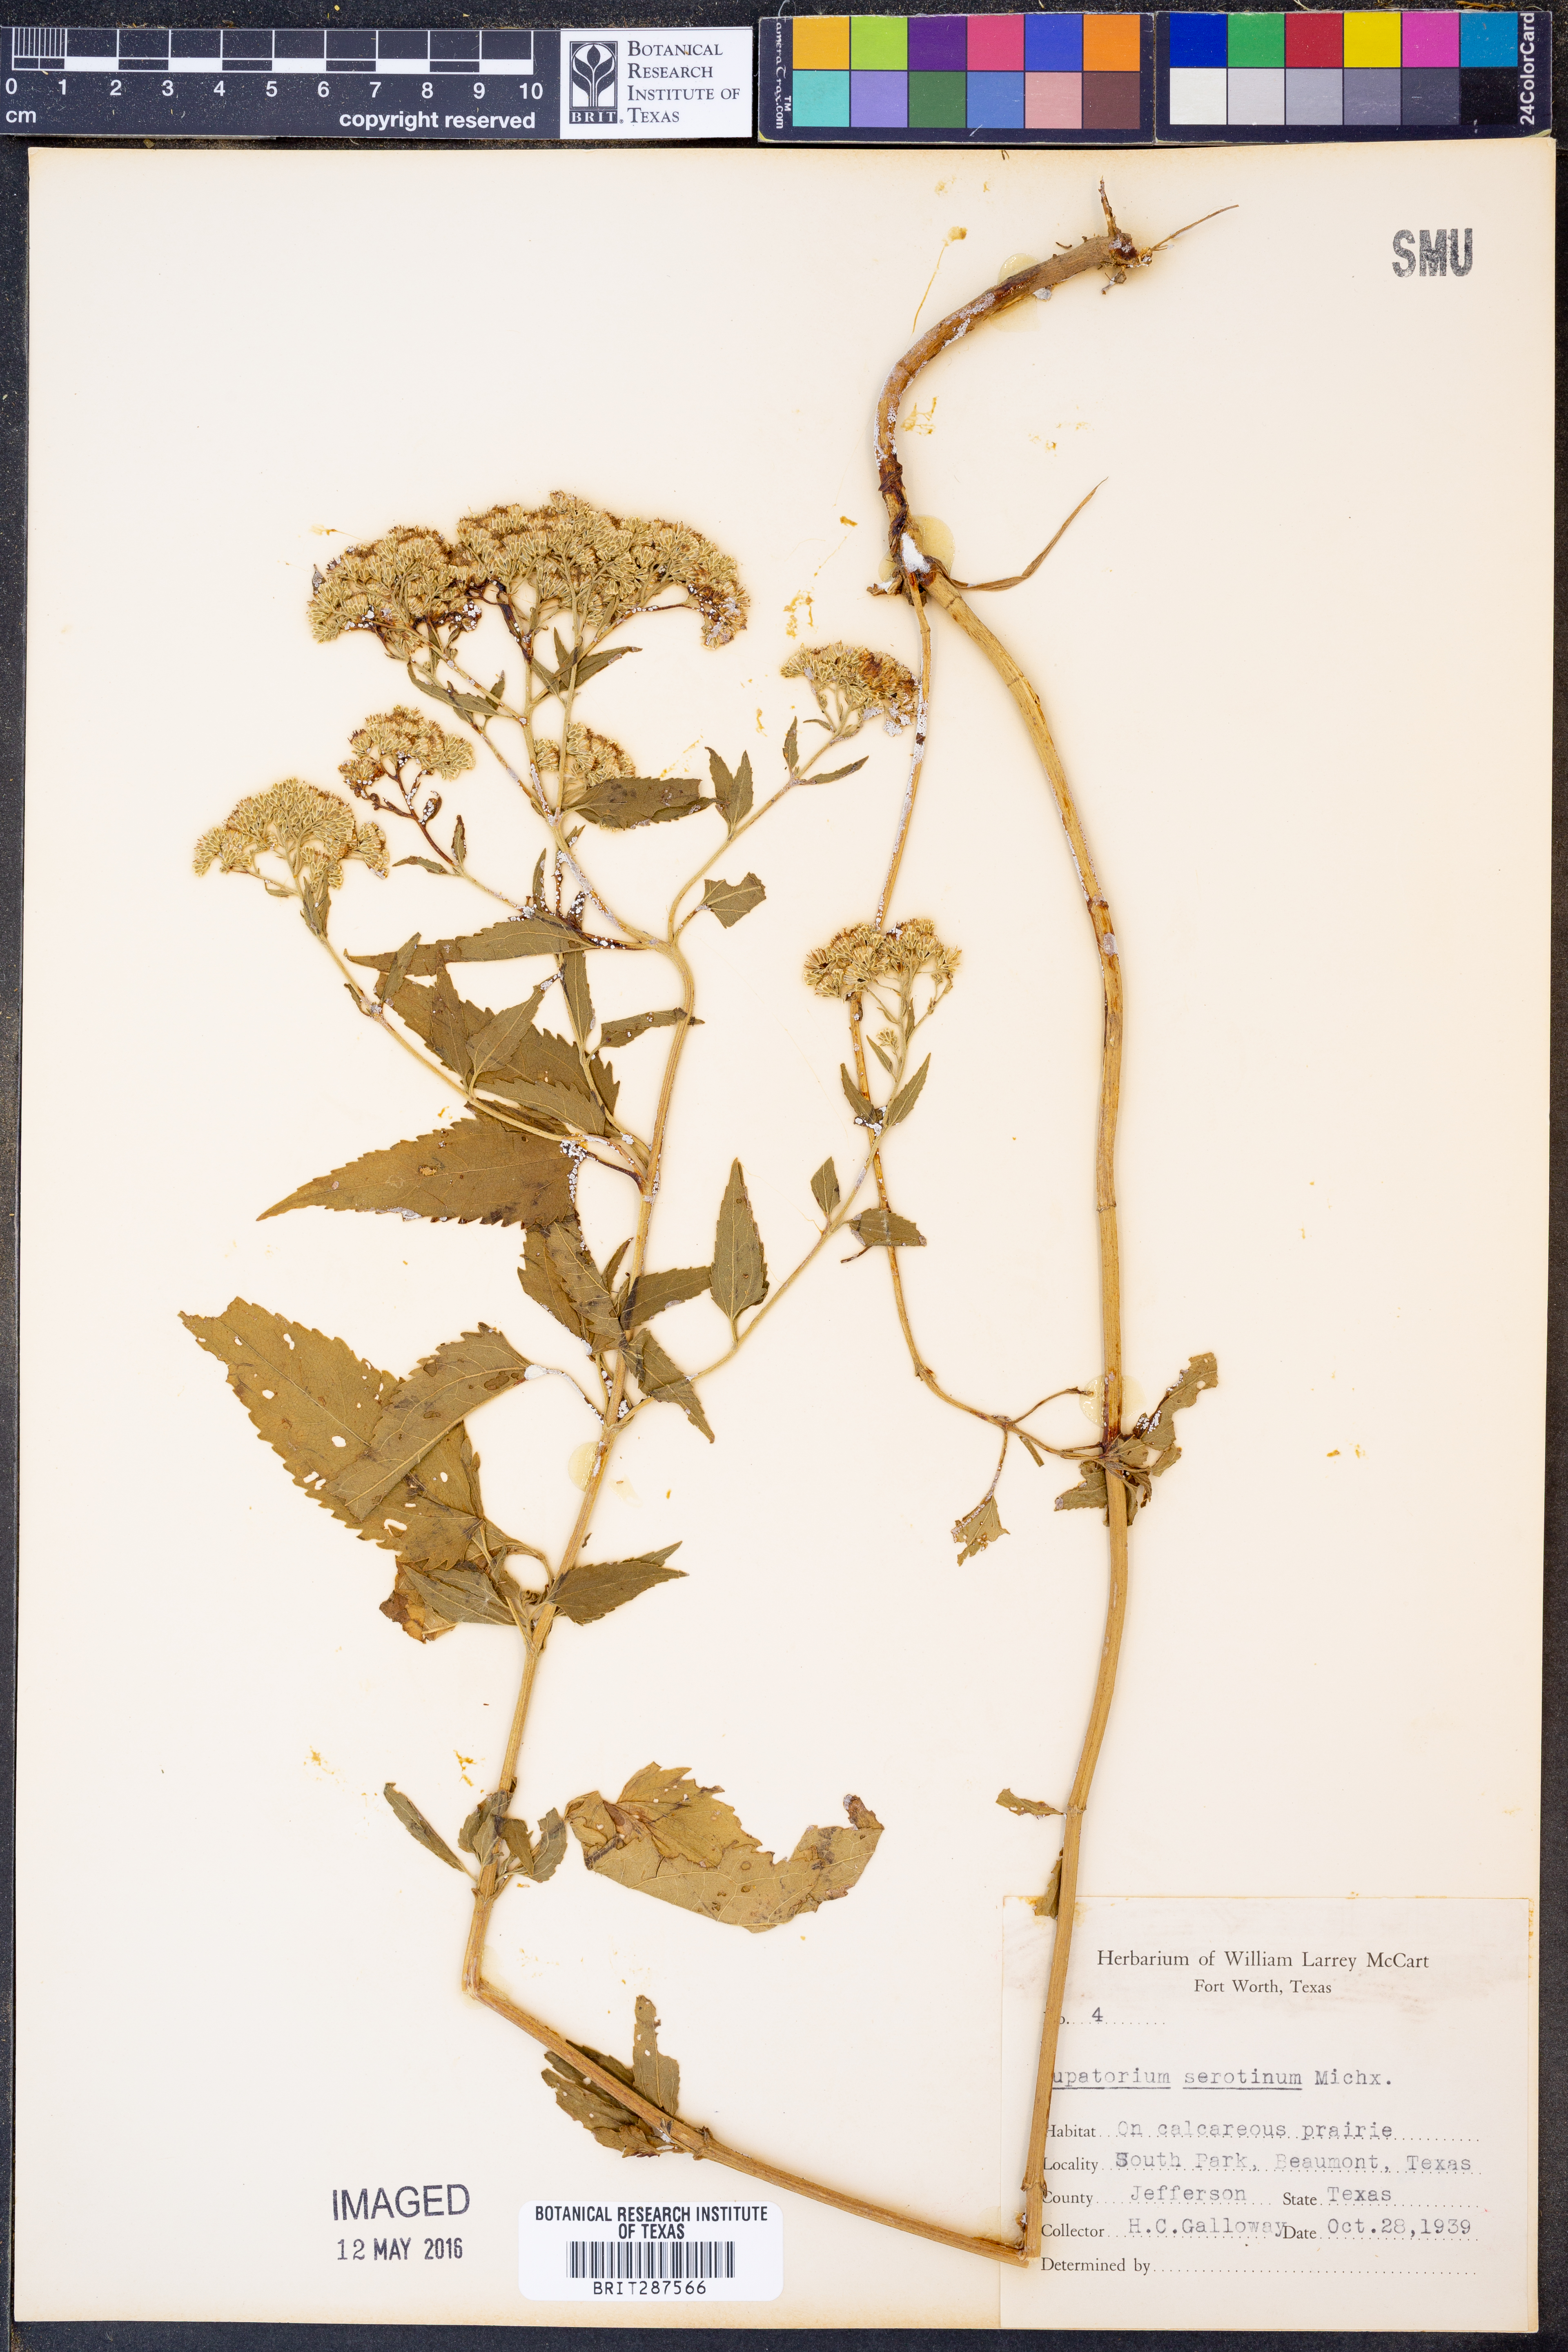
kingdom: Plantae
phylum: Tracheophyta
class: Magnoliopsida
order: Asterales
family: Asteraceae
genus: Eupatorium
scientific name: Eupatorium serotinum
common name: Late boneset
